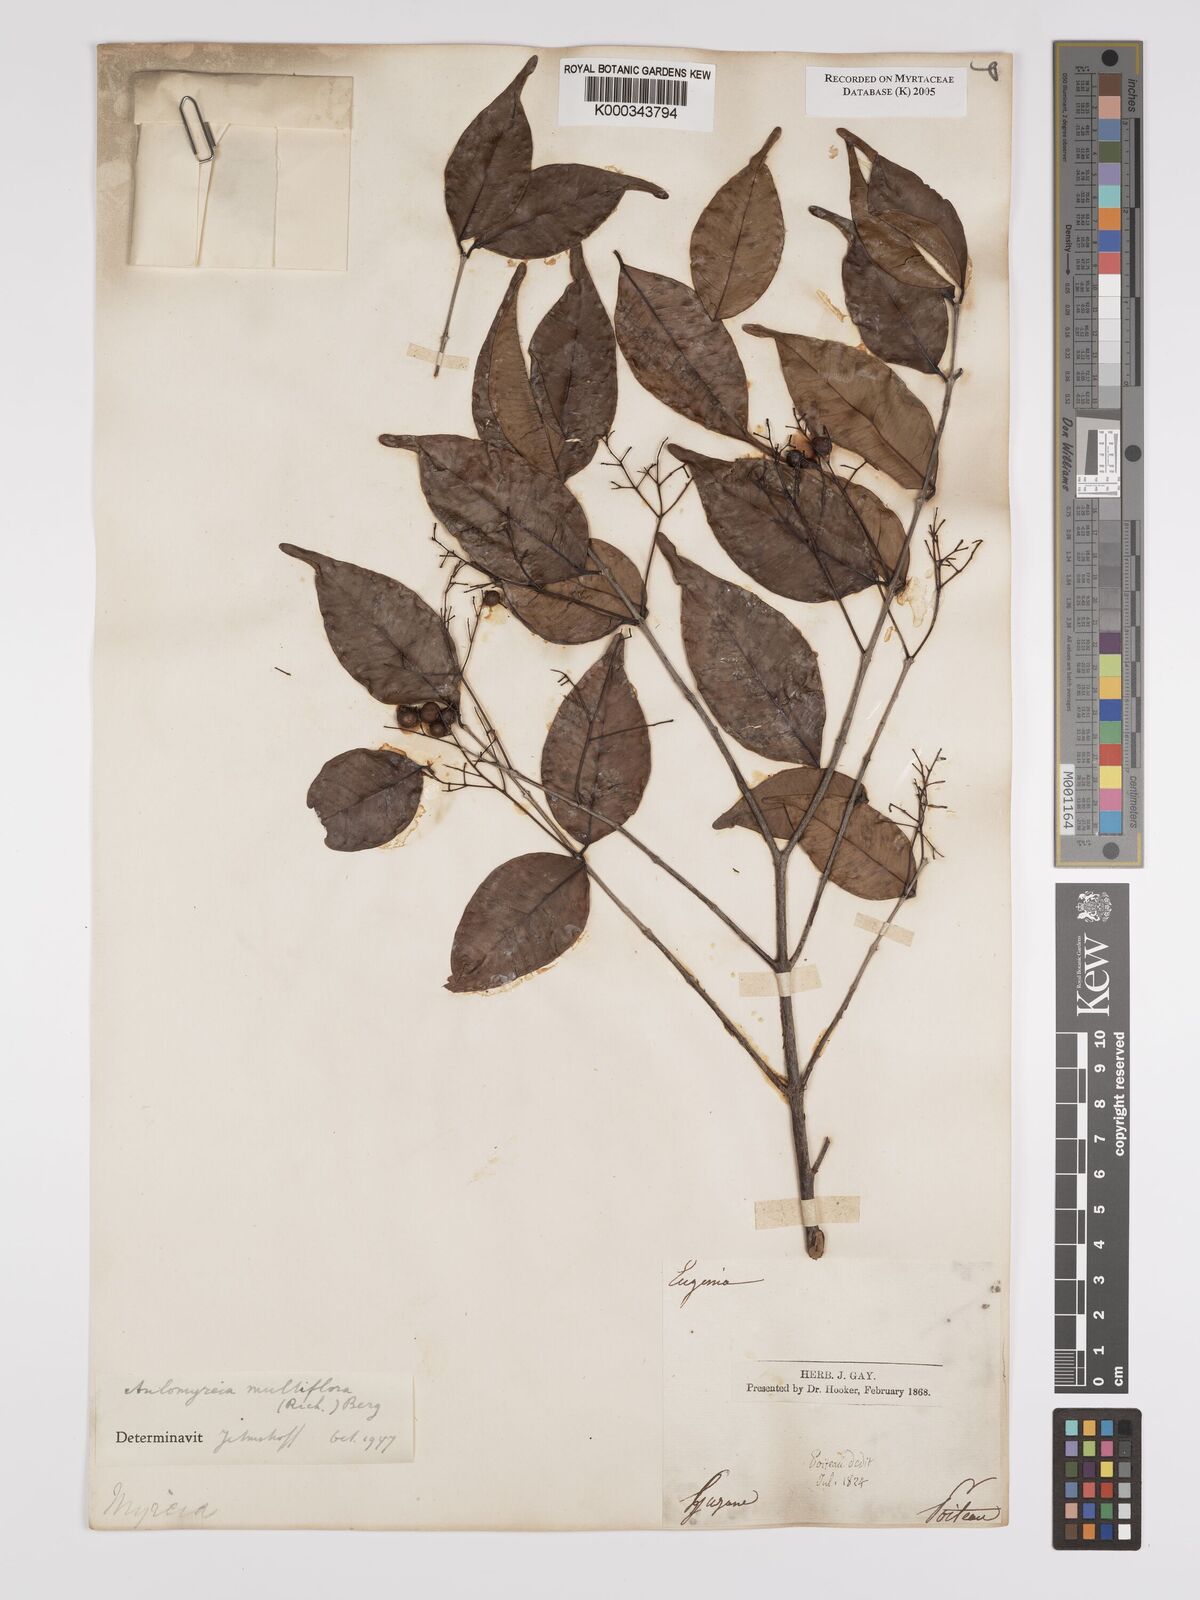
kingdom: Plantae
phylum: Tracheophyta
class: Magnoliopsida
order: Myrtales
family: Myrtaceae
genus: Myrcia
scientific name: Myrcia multiflora
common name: Pedra hume
